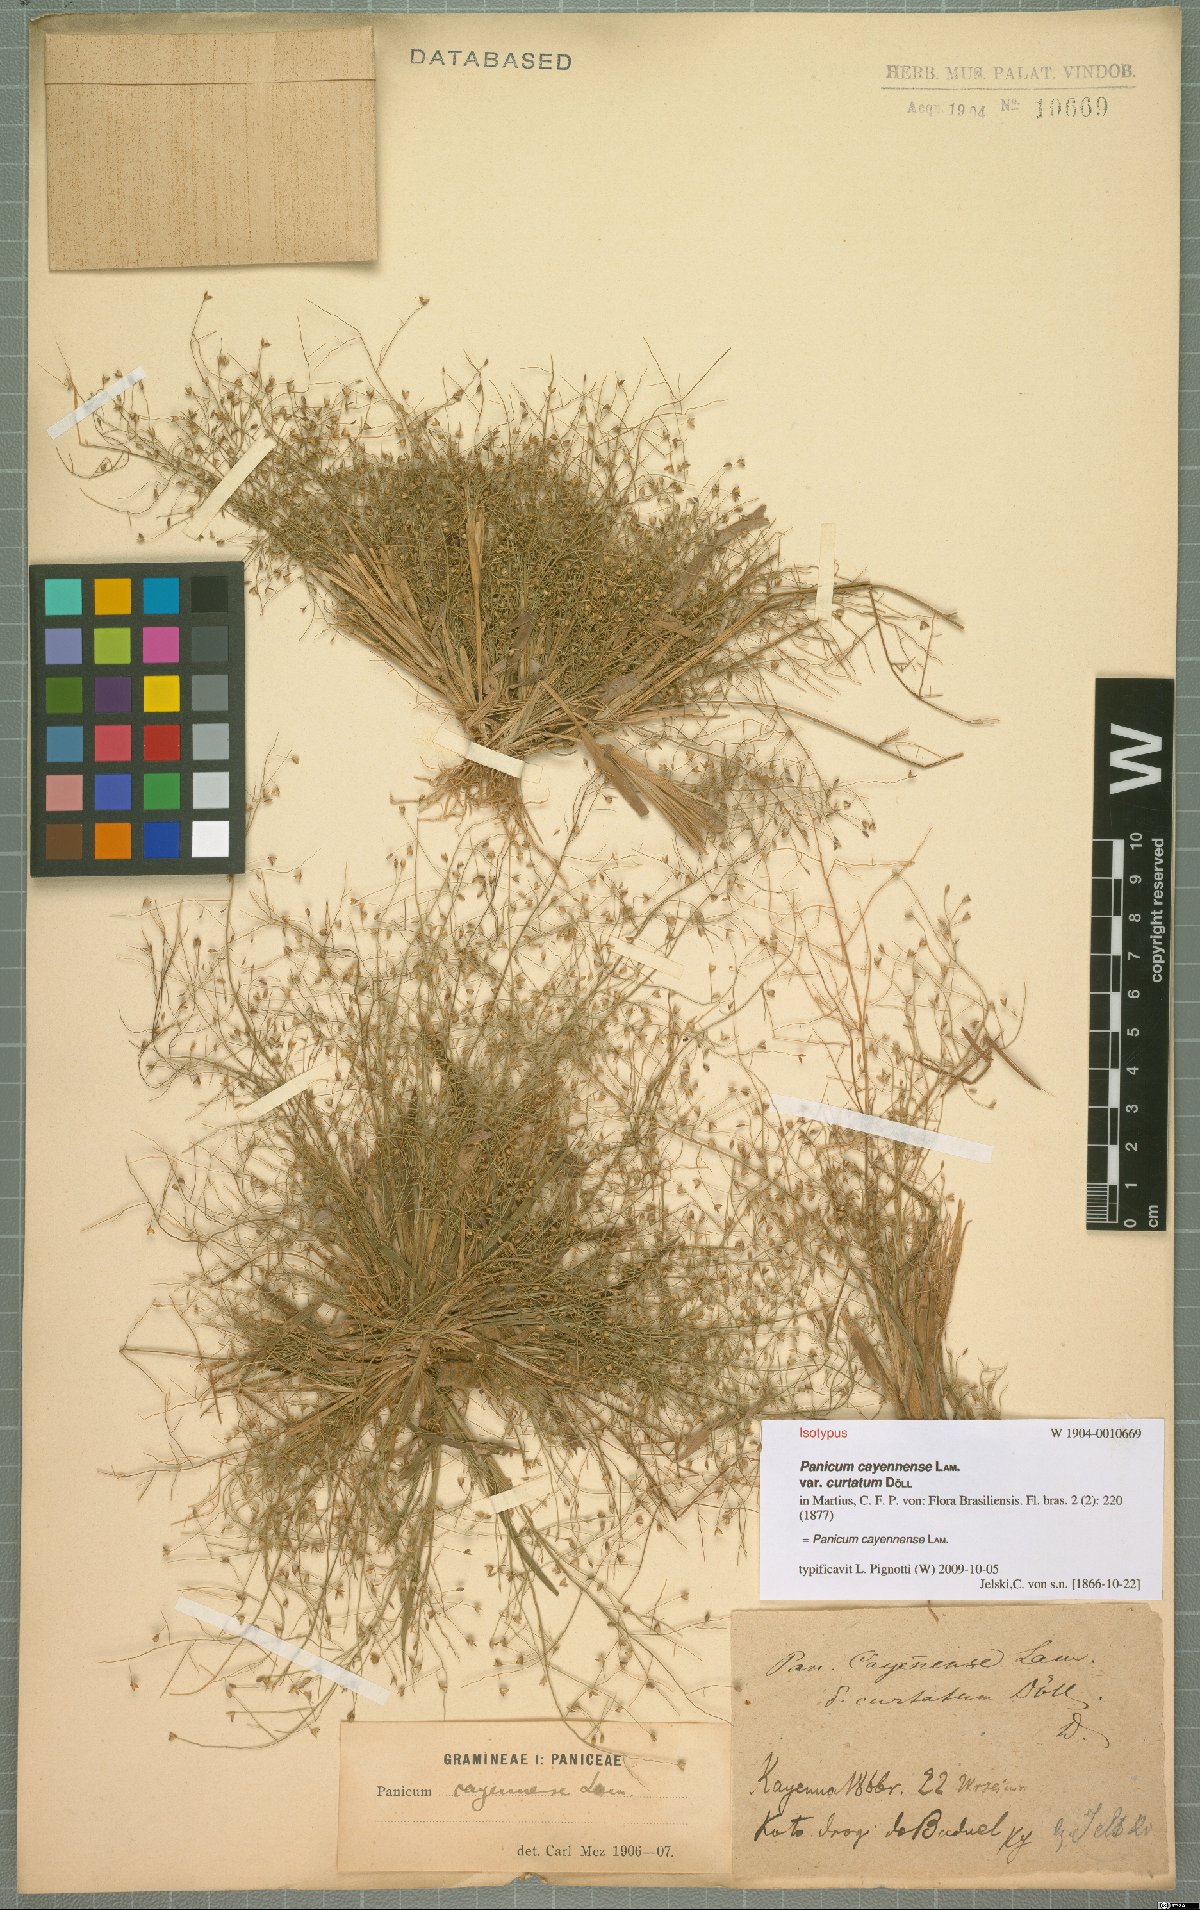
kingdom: Plantae
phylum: Tracheophyta
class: Liliopsida
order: Poales
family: Poaceae
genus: Panicum
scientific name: Panicum cayennense
